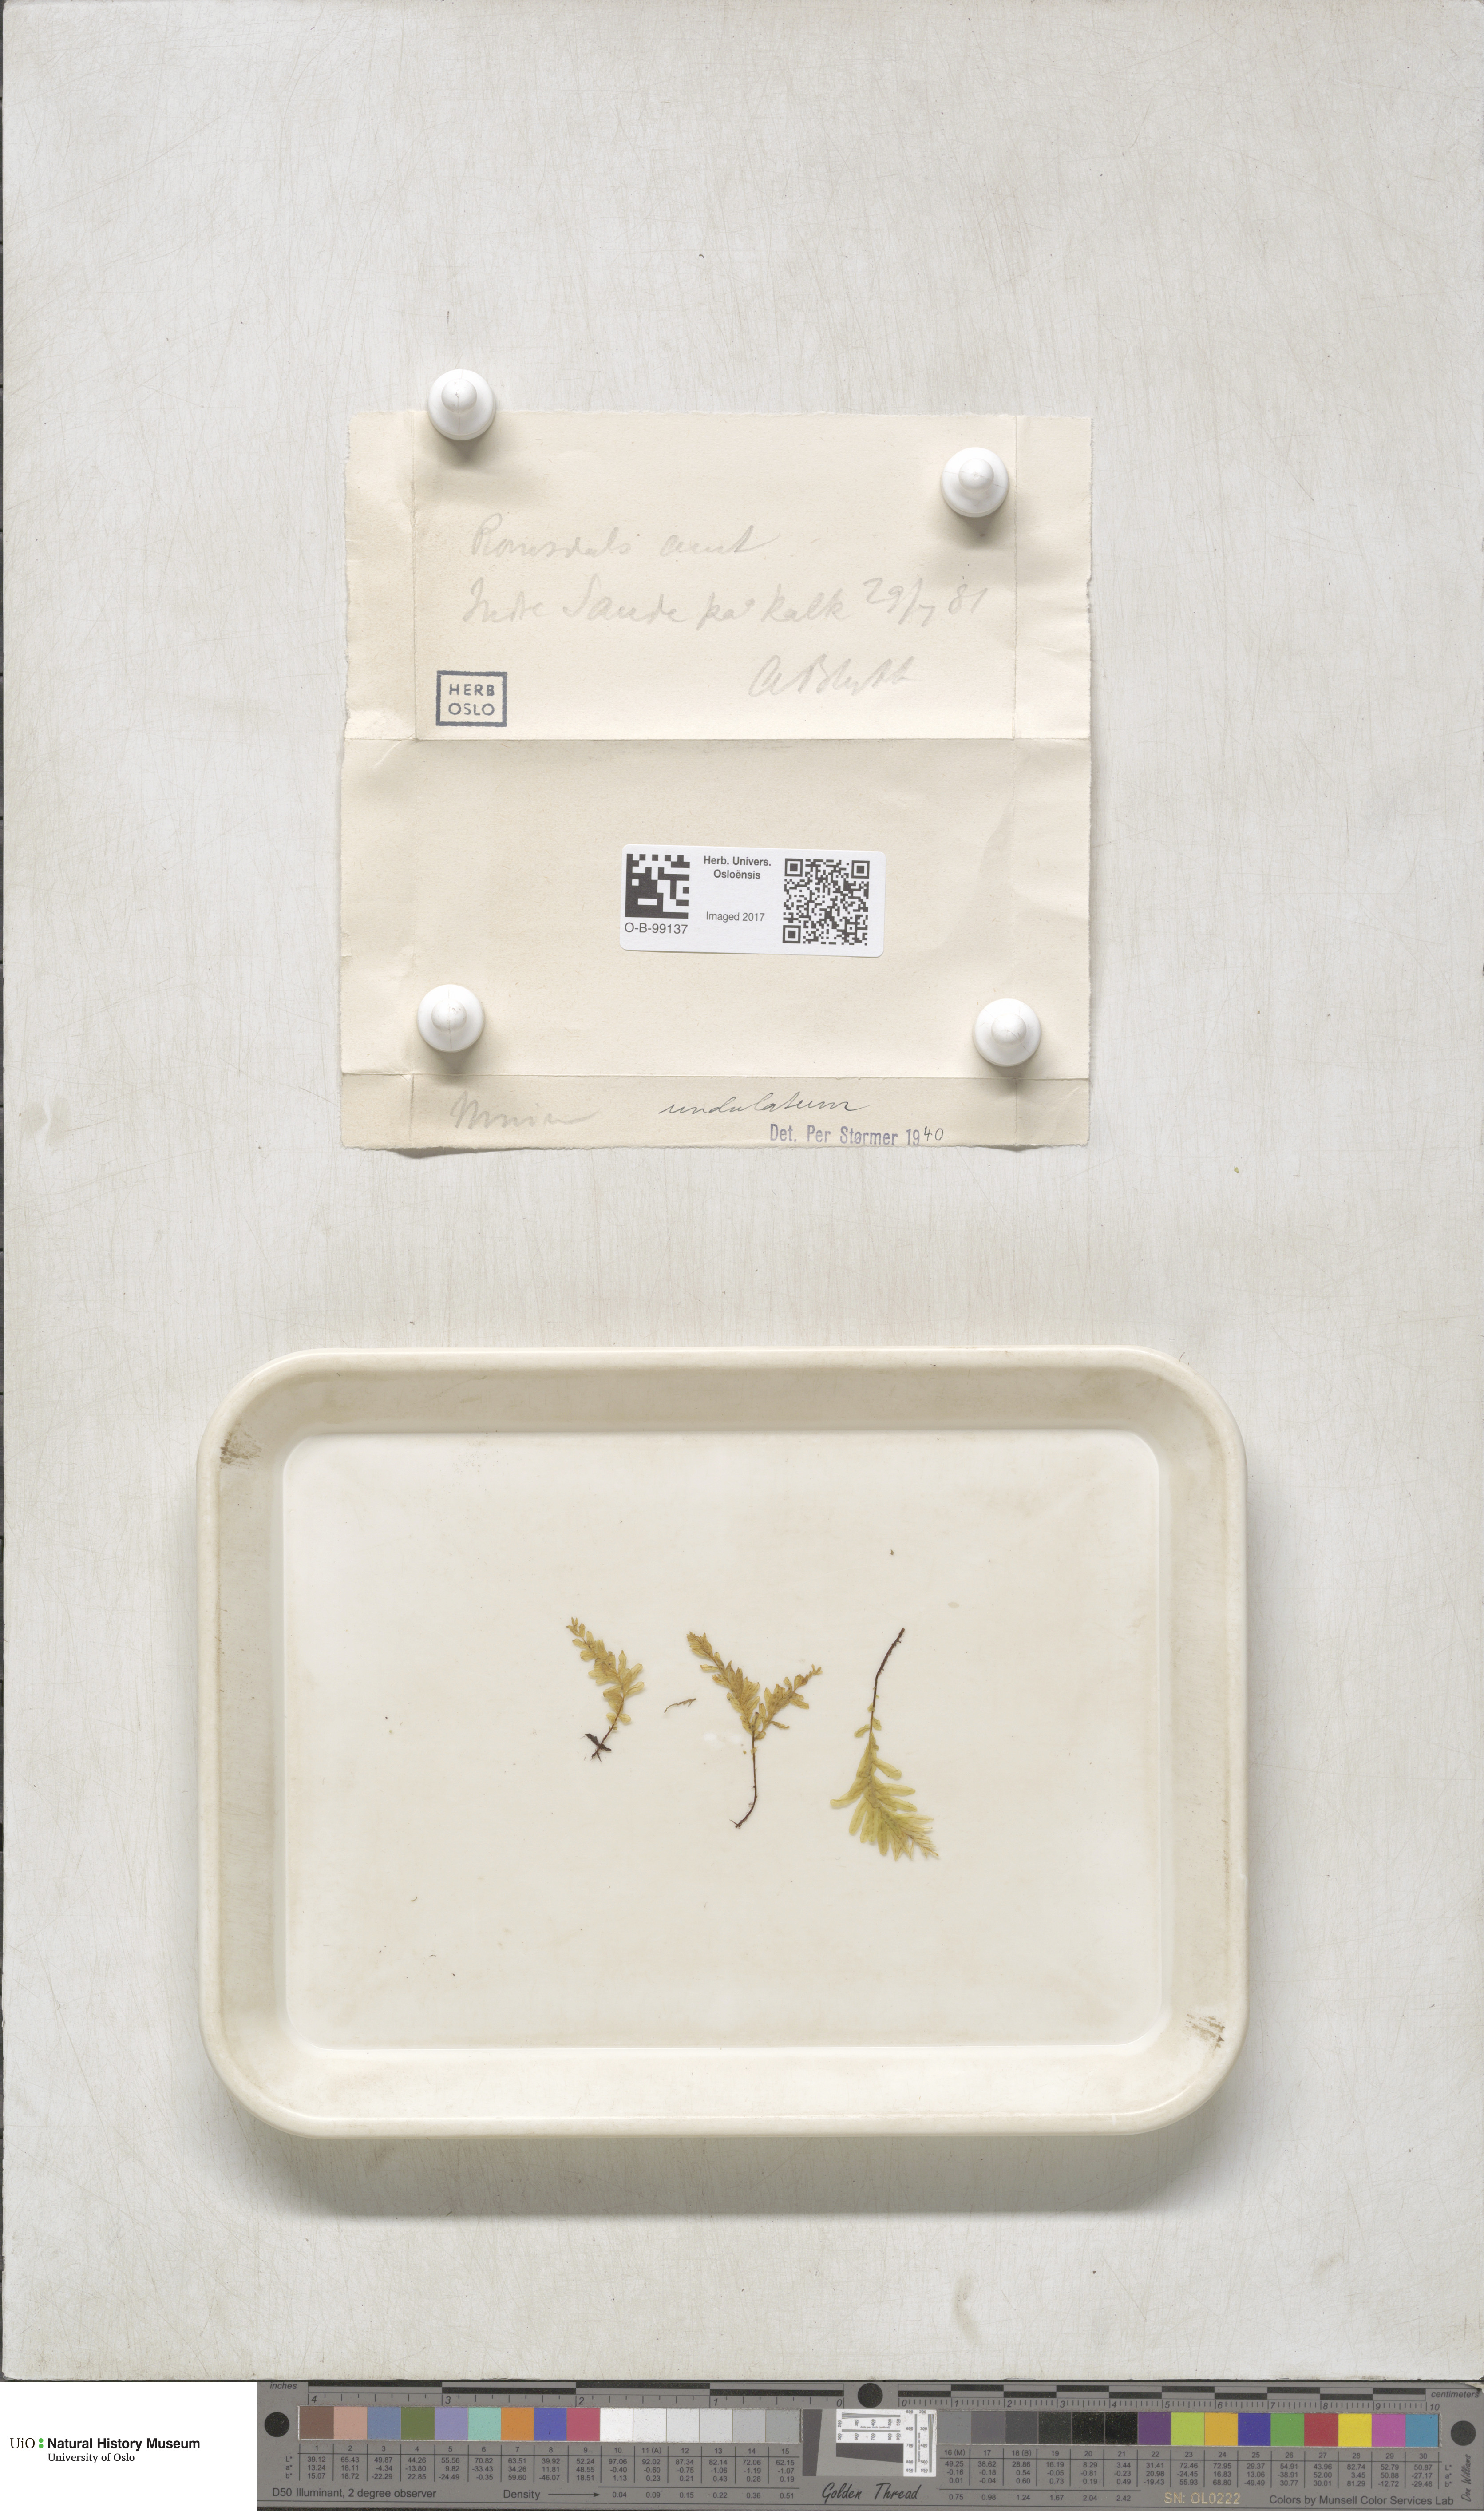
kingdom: Plantae
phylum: Bryophyta
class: Bryopsida
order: Bryales
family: Mniaceae
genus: Plagiomnium
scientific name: Plagiomnium undulatum
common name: Hart's-tongue thyme-moss
